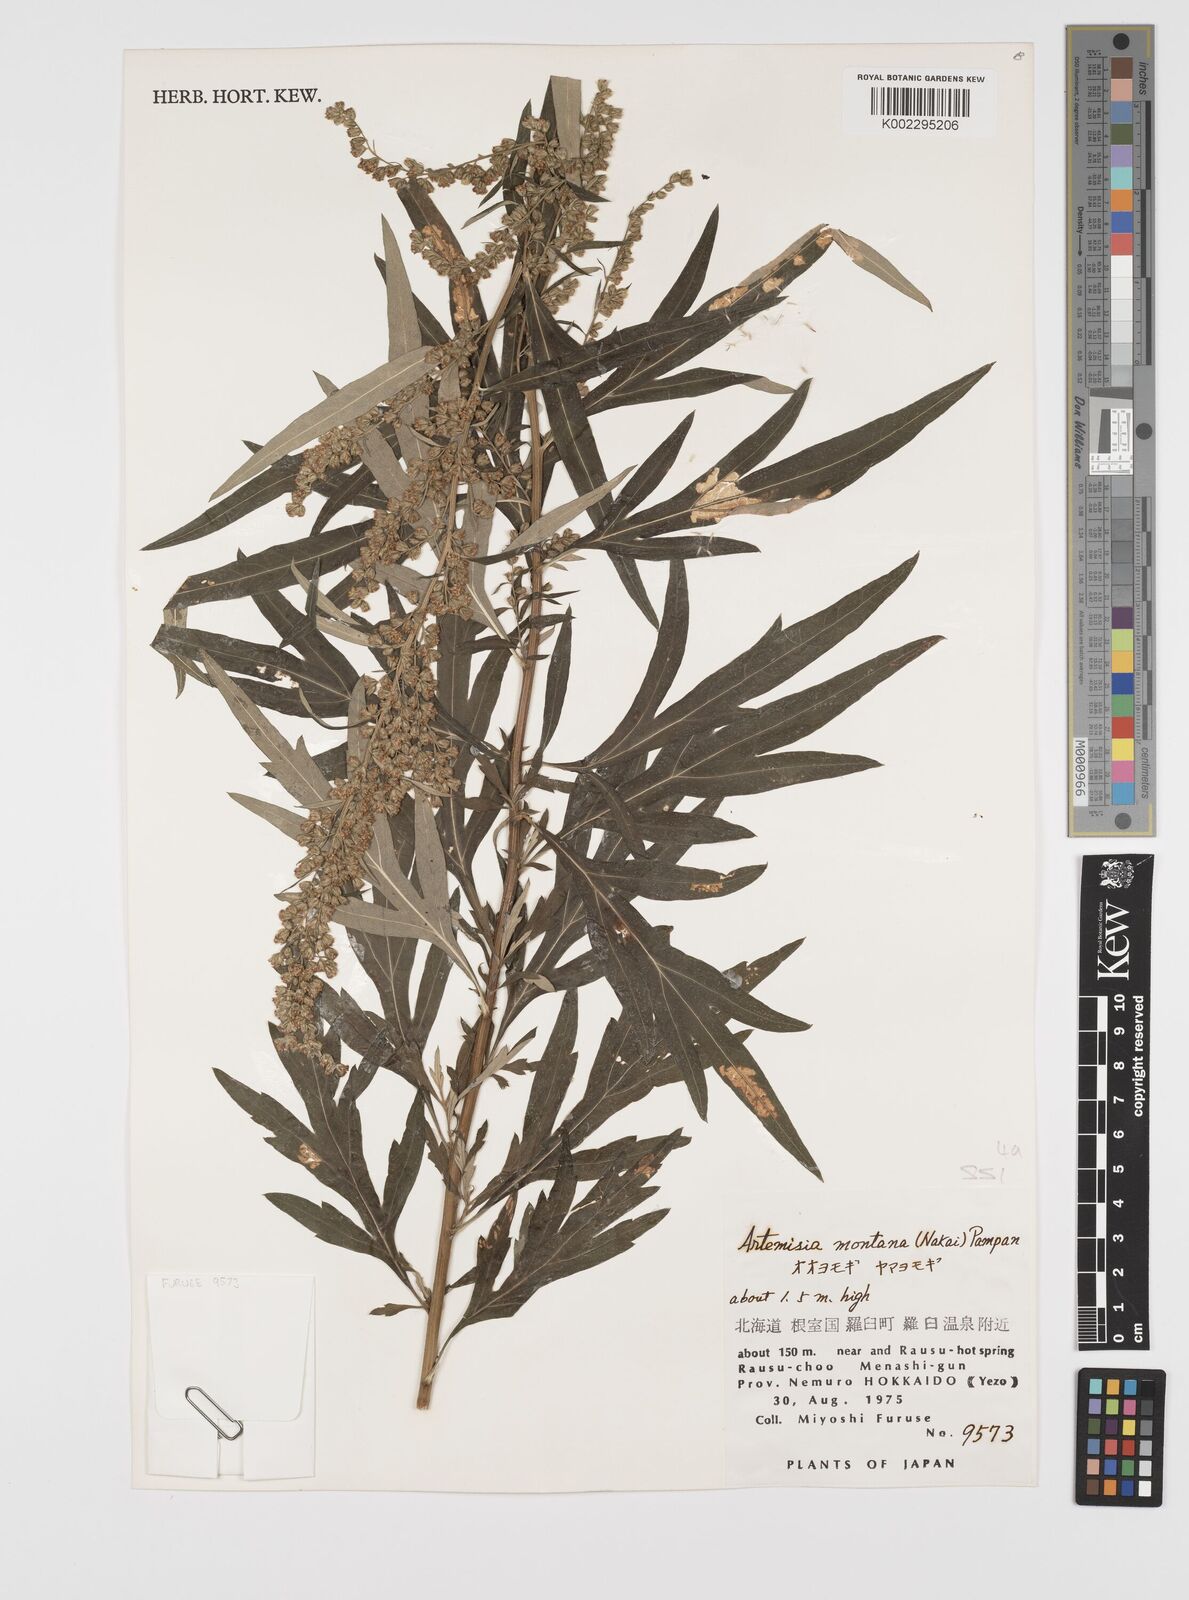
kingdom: Plantae
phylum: Tracheophyta
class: Magnoliopsida
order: Asterales
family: Asteraceae
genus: Artemisia
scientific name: Artemisia montana
